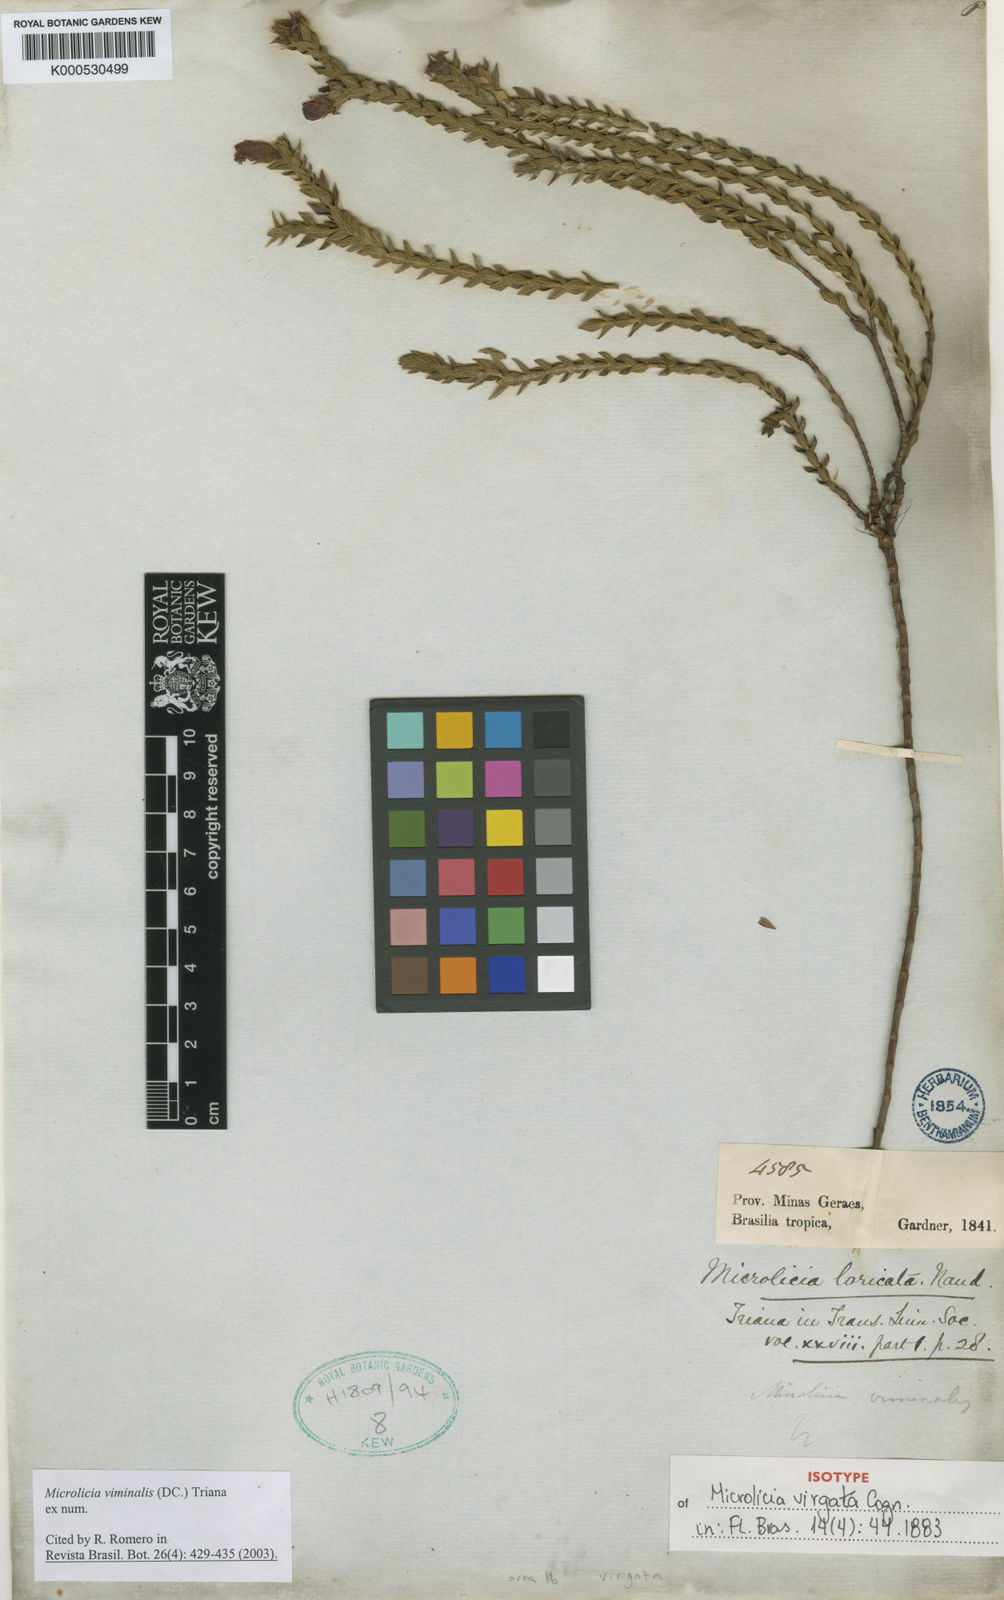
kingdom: Plantae
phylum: Tracheophyta
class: Magnoliopsida
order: Myrtales
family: Melastomataceae
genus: Microlicia
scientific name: Microlicia viminalis
